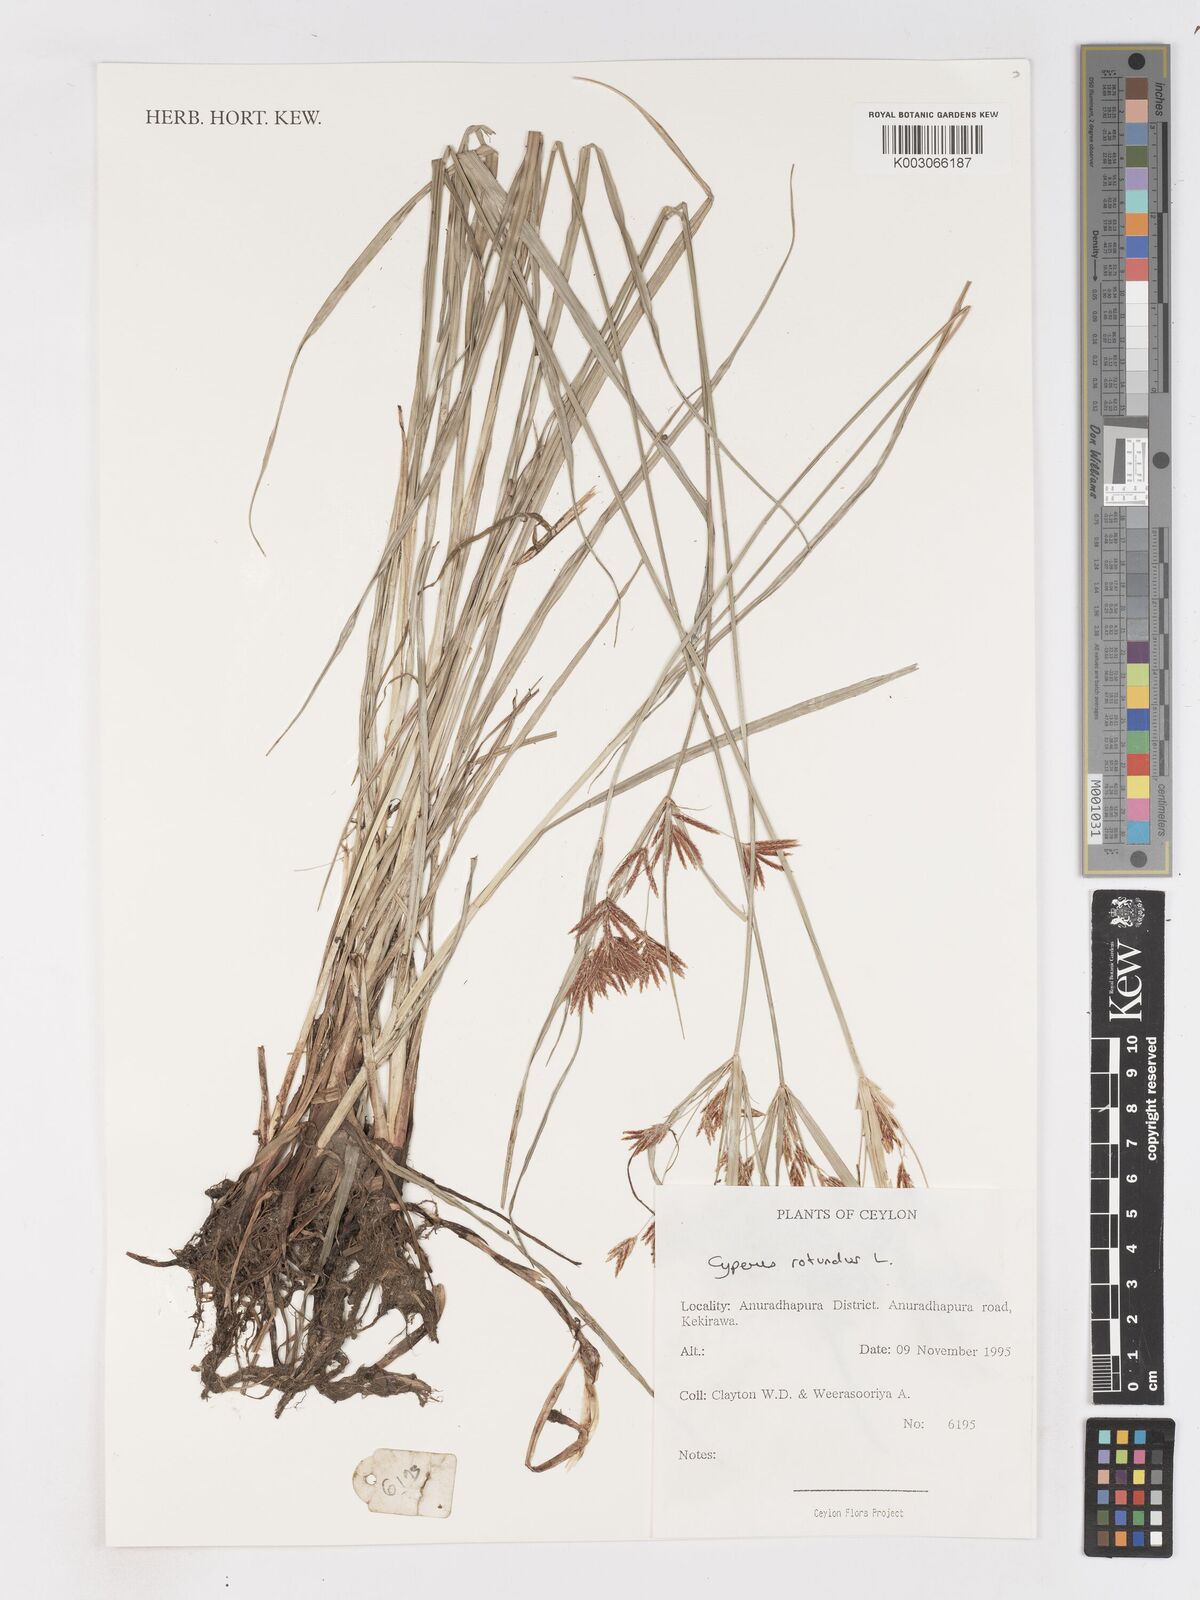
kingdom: Plantae
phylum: Tracheophyta
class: Liliopsida
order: Poales
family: Cyperaceae
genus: Cyperus
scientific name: Cyperus rotundus
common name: Nutgrass
